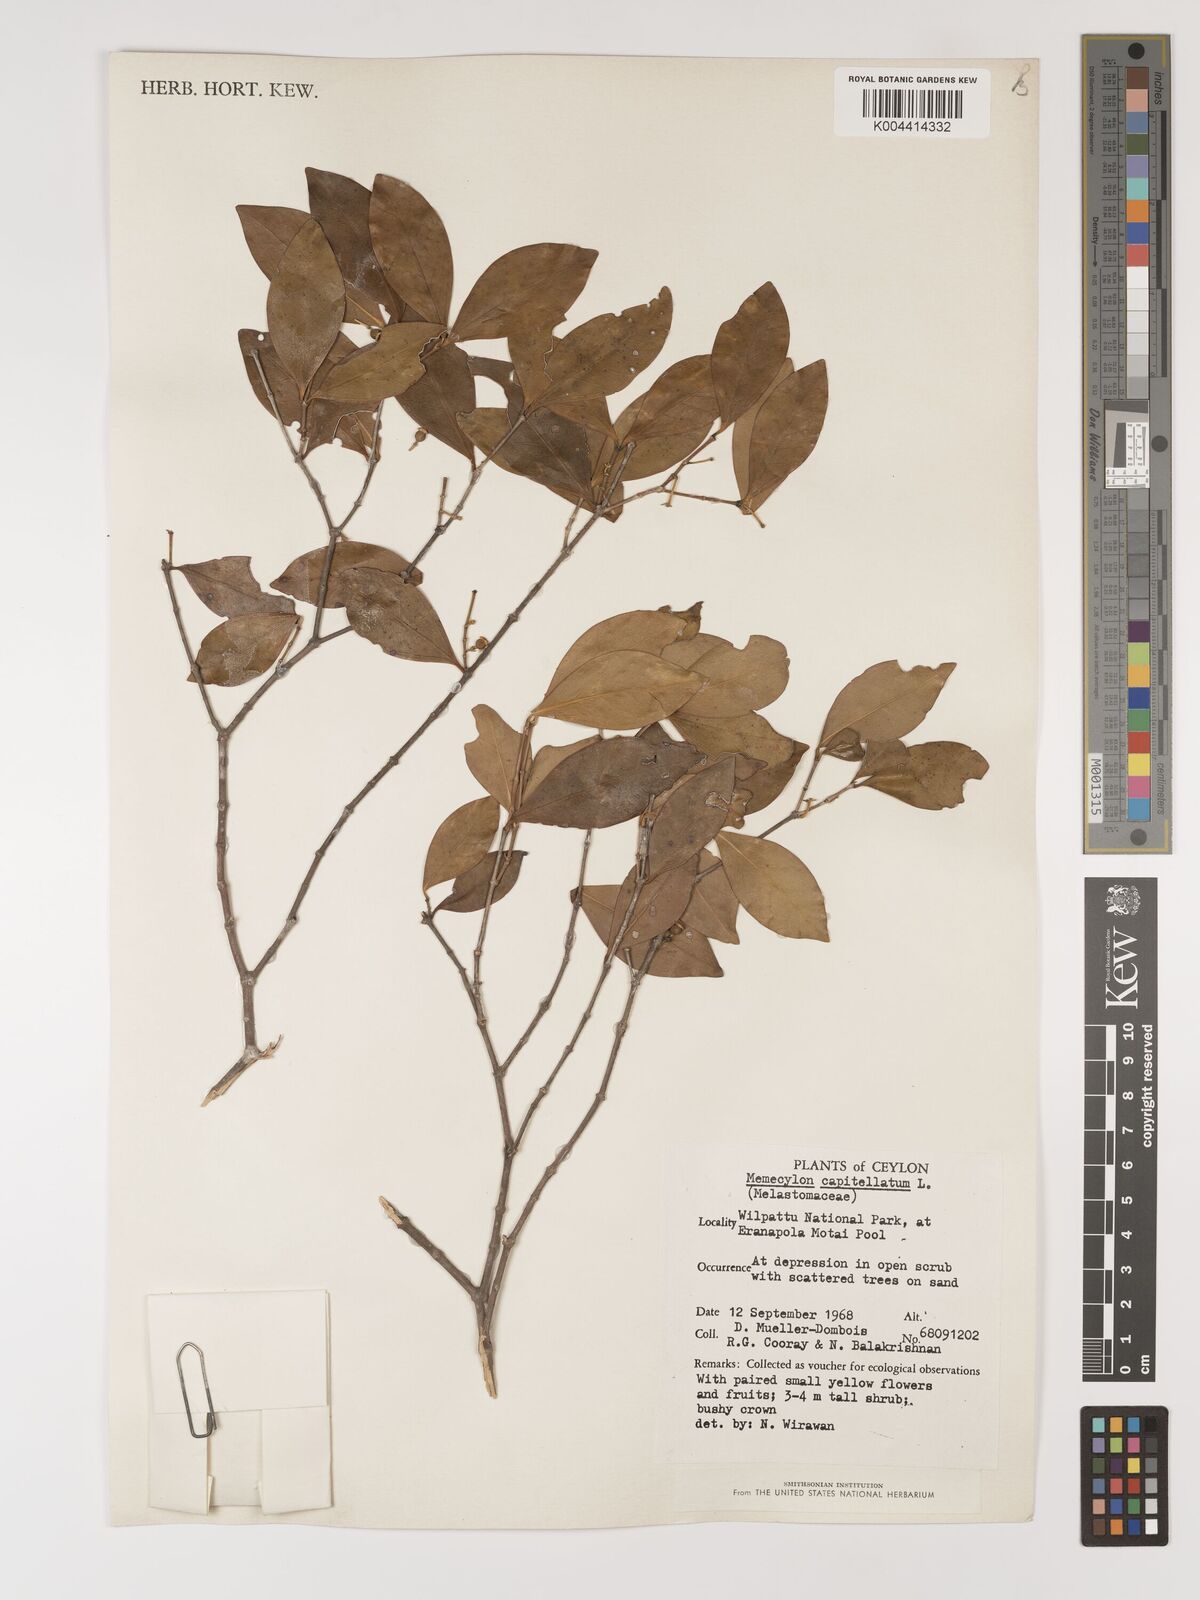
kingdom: Plantae
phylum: Tracheophyta
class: Magnoliopsida
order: Myrtales
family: Melastomataceae
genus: Memecylon
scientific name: Memecylon capitellatum
